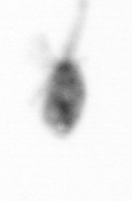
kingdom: Animalia
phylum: Arthropoda
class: Copepoda
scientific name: Copepoda
